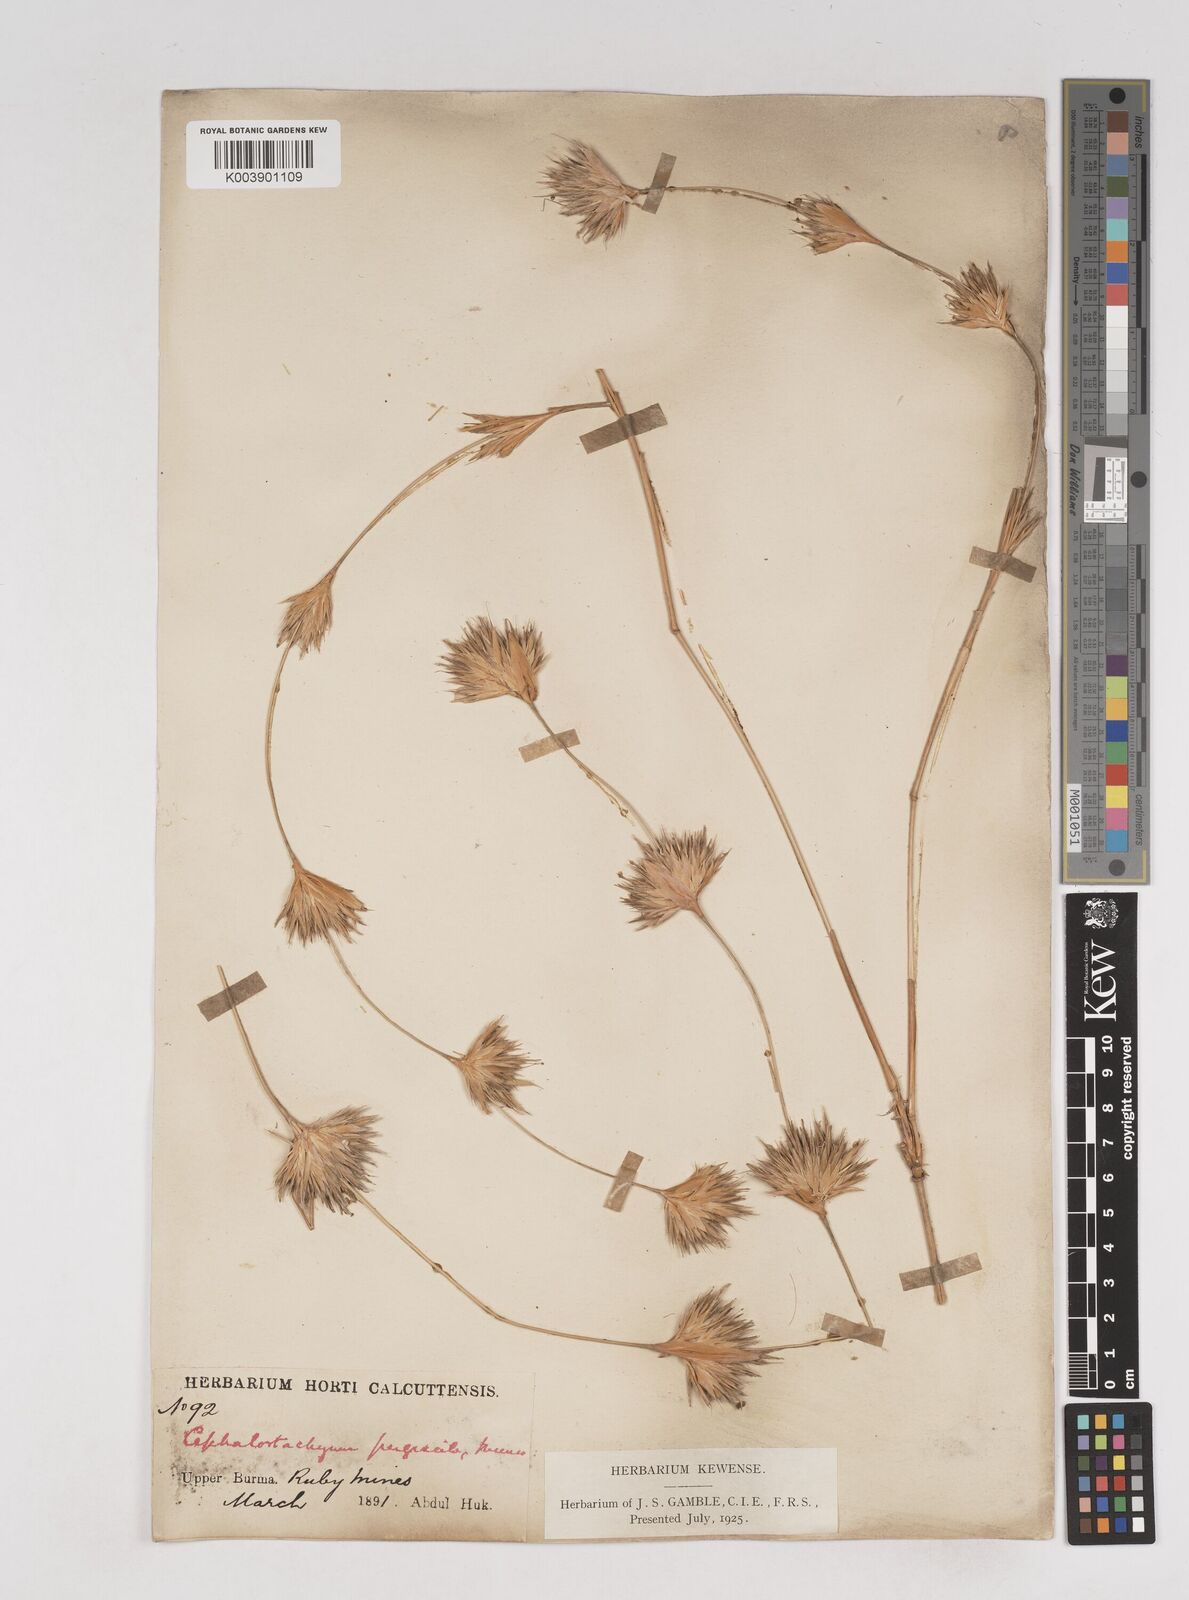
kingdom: Plantae
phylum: Tracheophyta
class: Liliopsida
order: Poales
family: Poaceae
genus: Schizostachyum
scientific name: Schizostachyum pergracile
